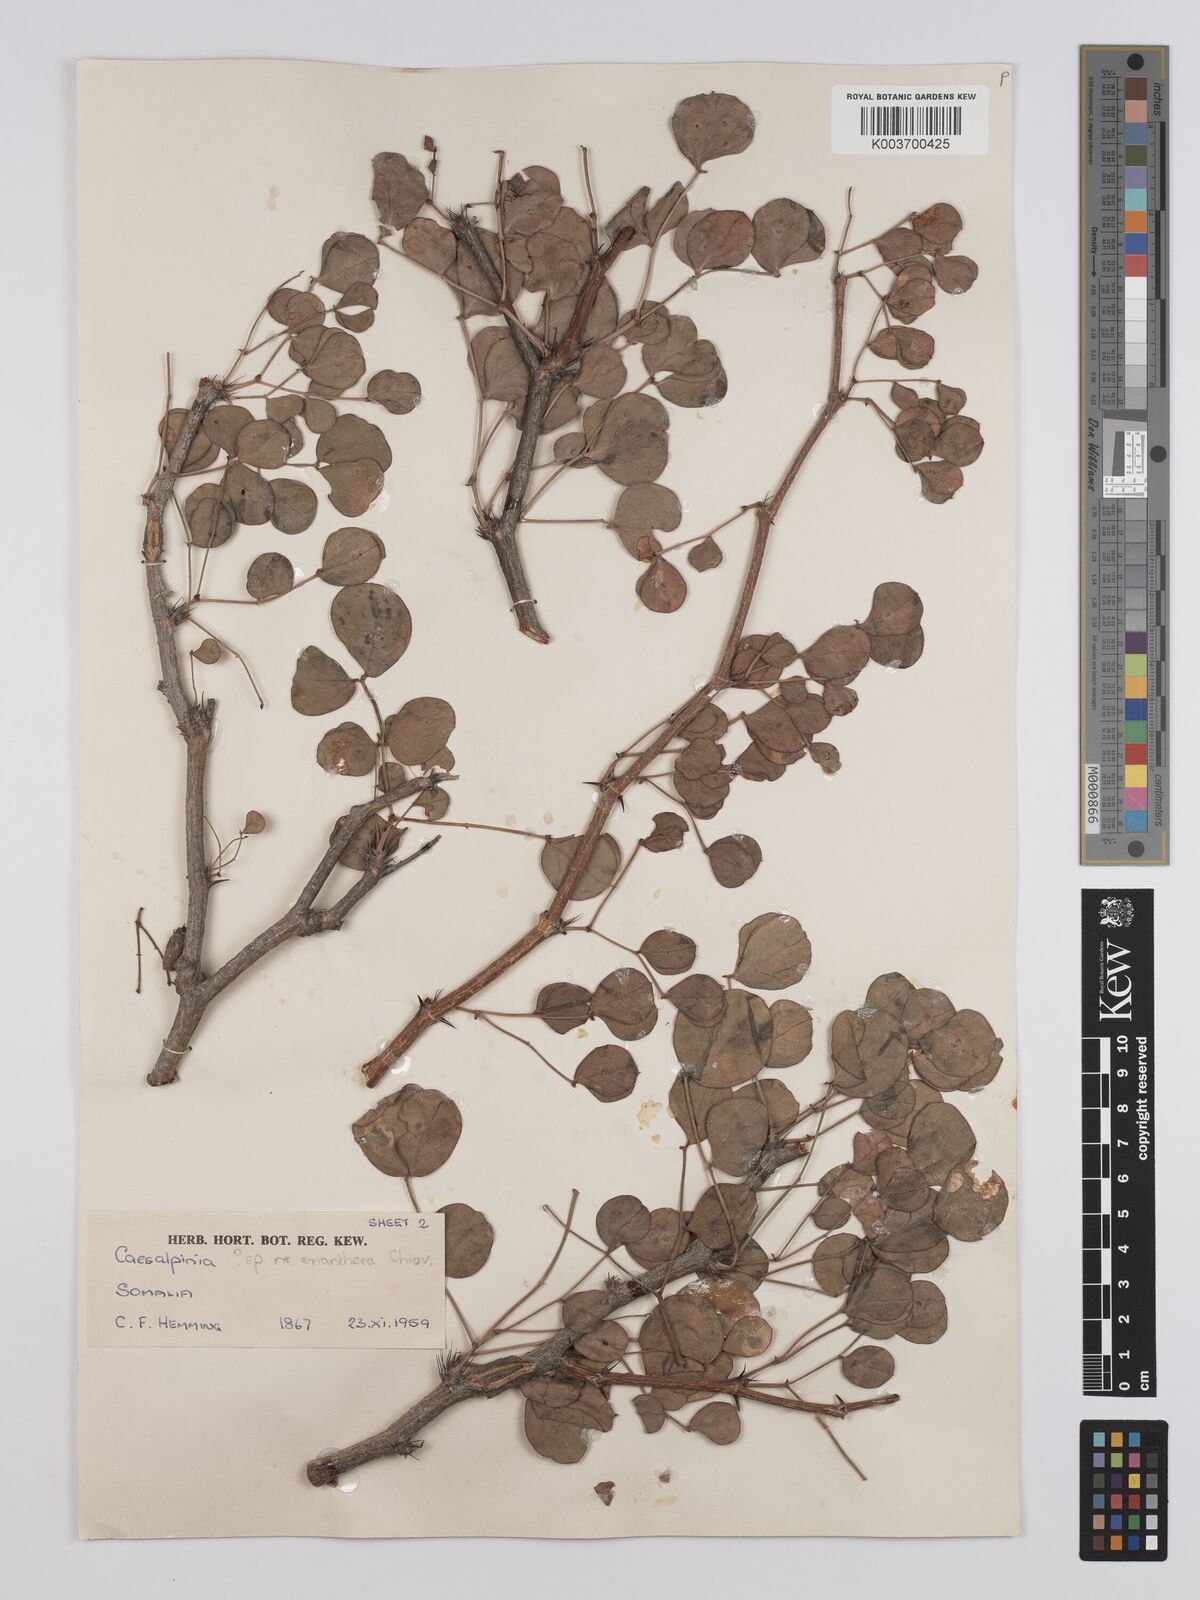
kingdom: Plantae
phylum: Tracheophyta
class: Magnoliopsida
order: Fabales
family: Fabaceae
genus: Denisophytum
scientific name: Denisophytum eriantherum
